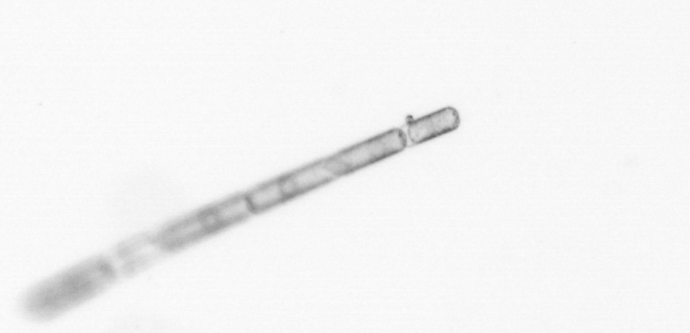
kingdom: Chromista
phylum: Ochrophyta
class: Bacillariophyceae
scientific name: Bacillariophyceae
